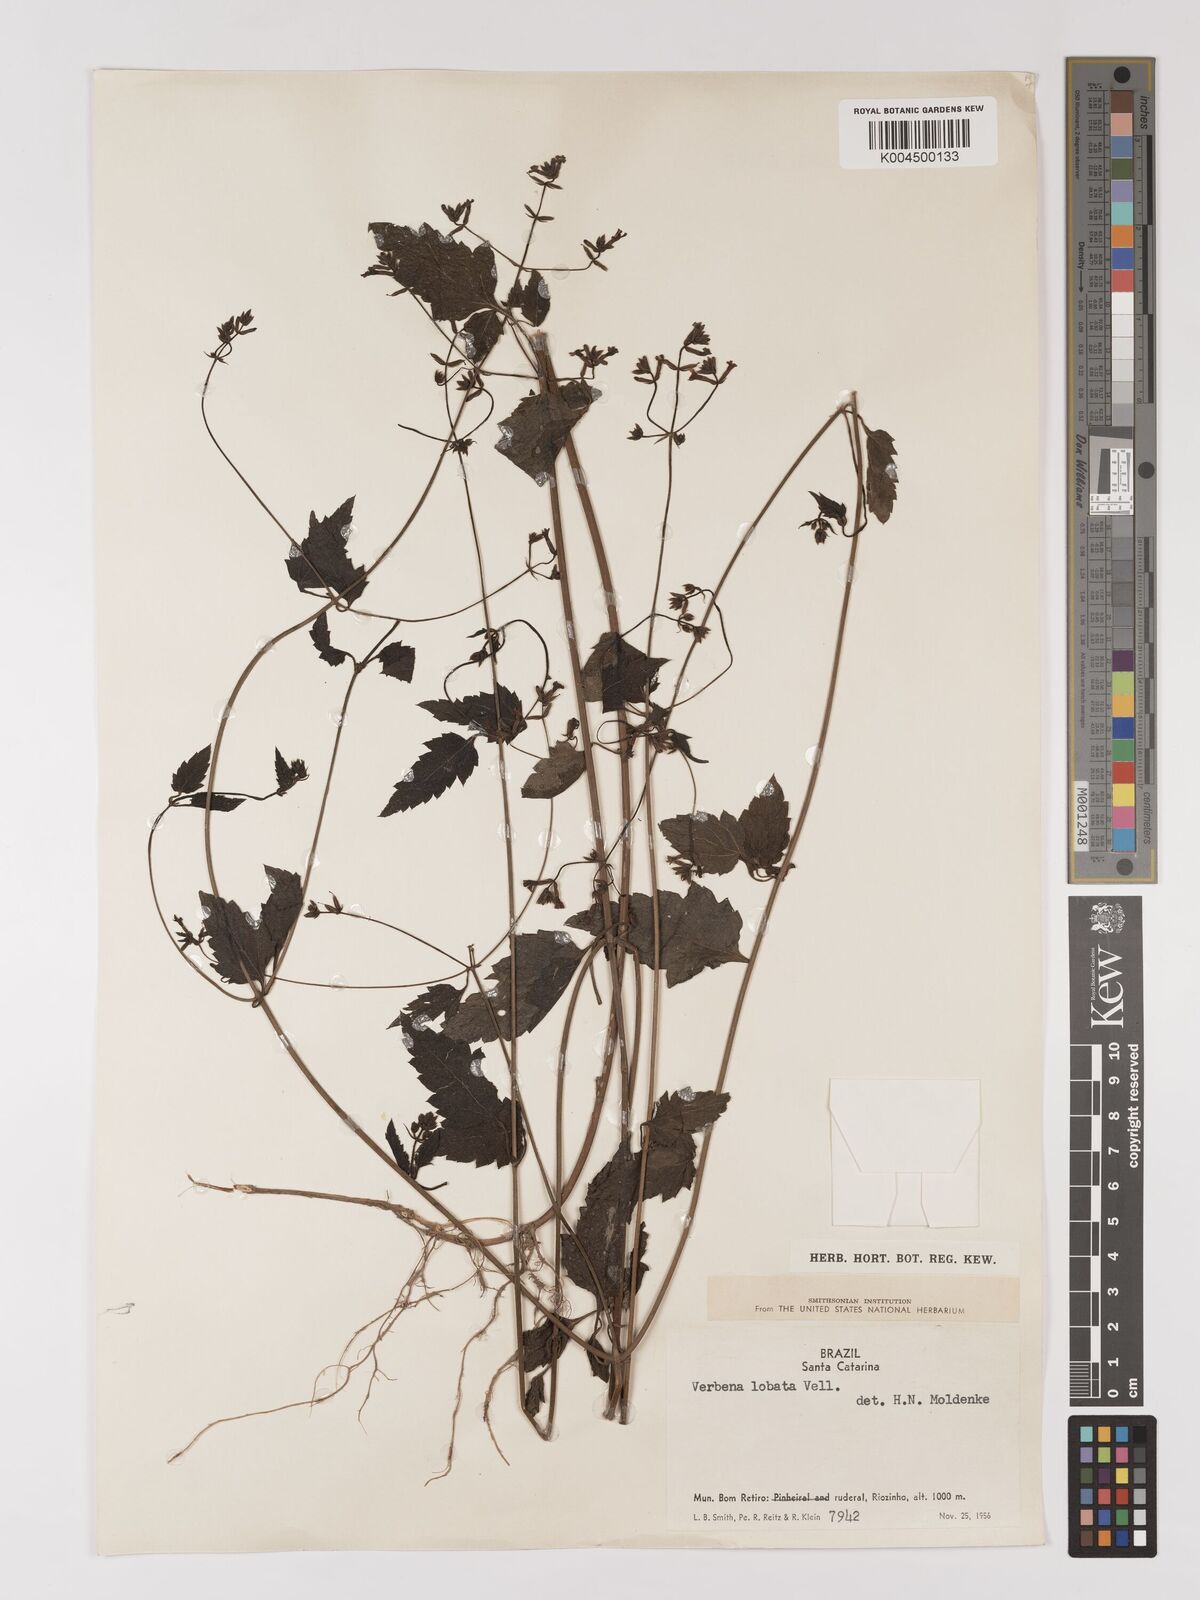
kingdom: Plantae
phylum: Tracheophyta
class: Magnoliopsida
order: Lamiales
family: Verbenaceae
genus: Verbena
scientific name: Verbena lobata
